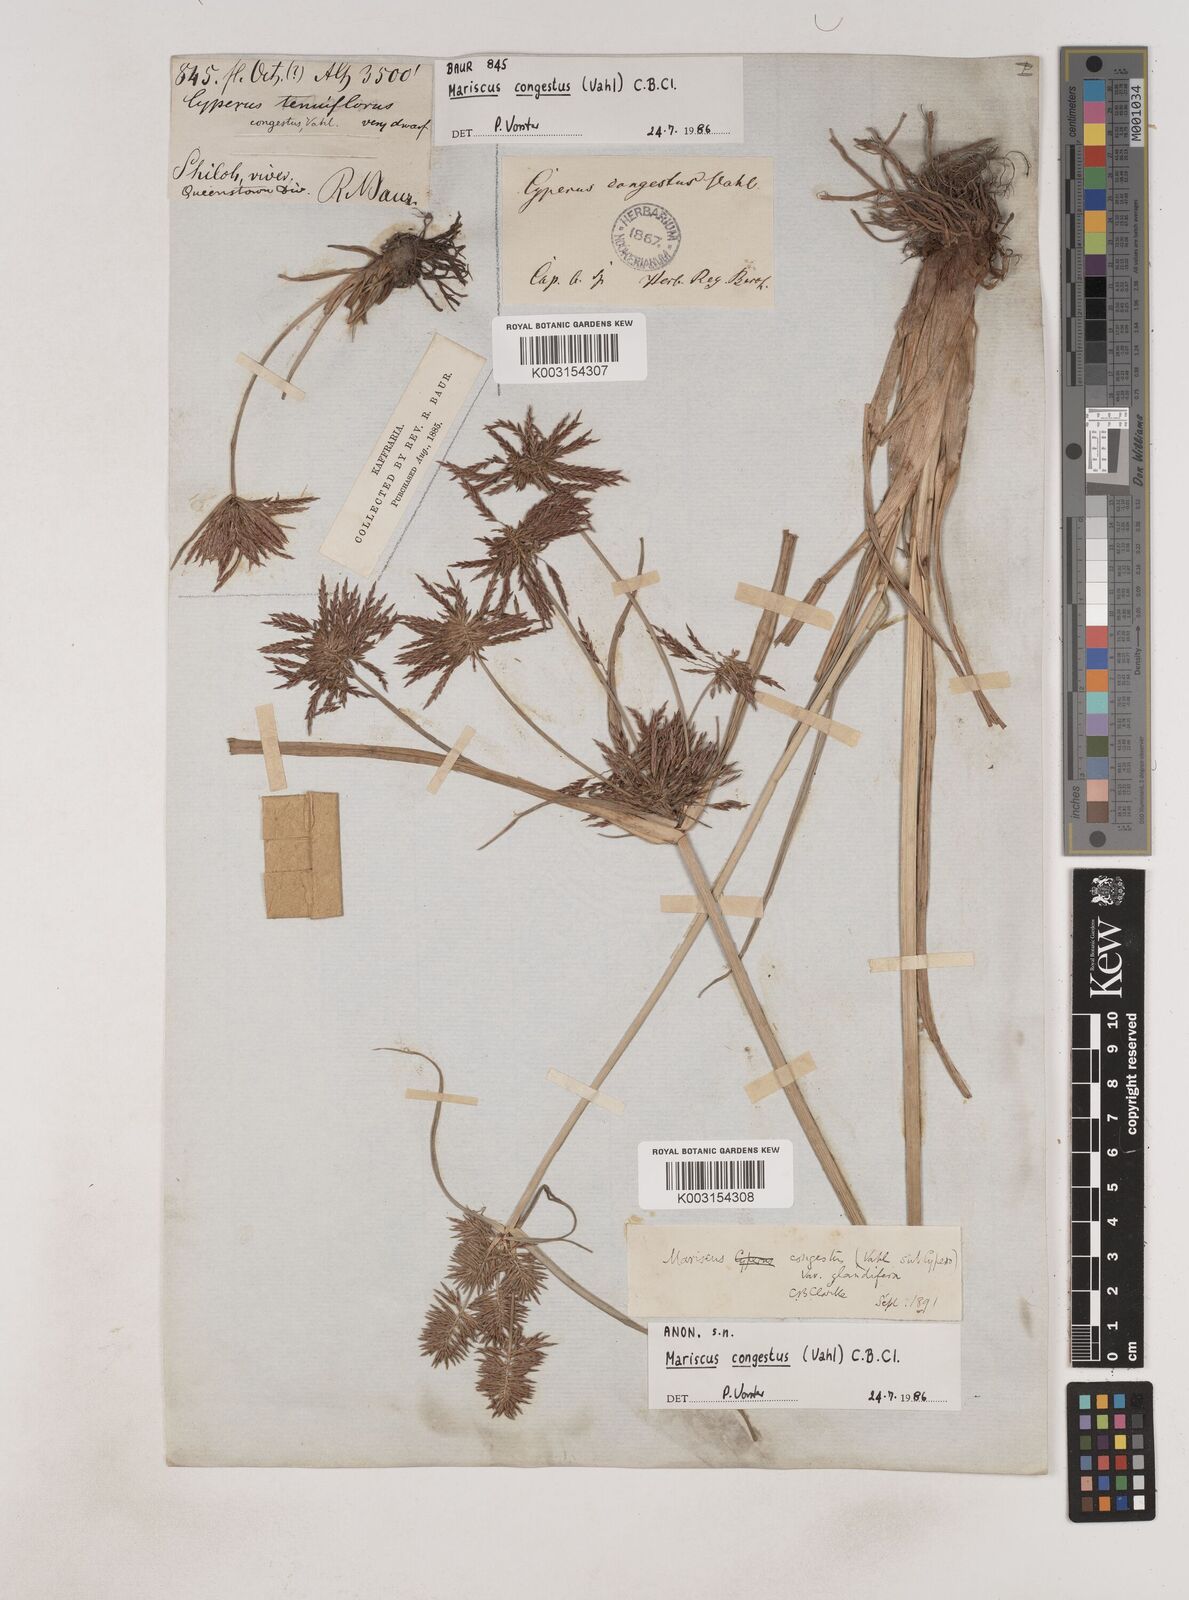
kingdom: Plantae
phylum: Tracheophyta
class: Liliopsida
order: Poales
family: Cyperaceae
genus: Cyperus
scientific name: Cyperus congestus
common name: Dense flat sedge
